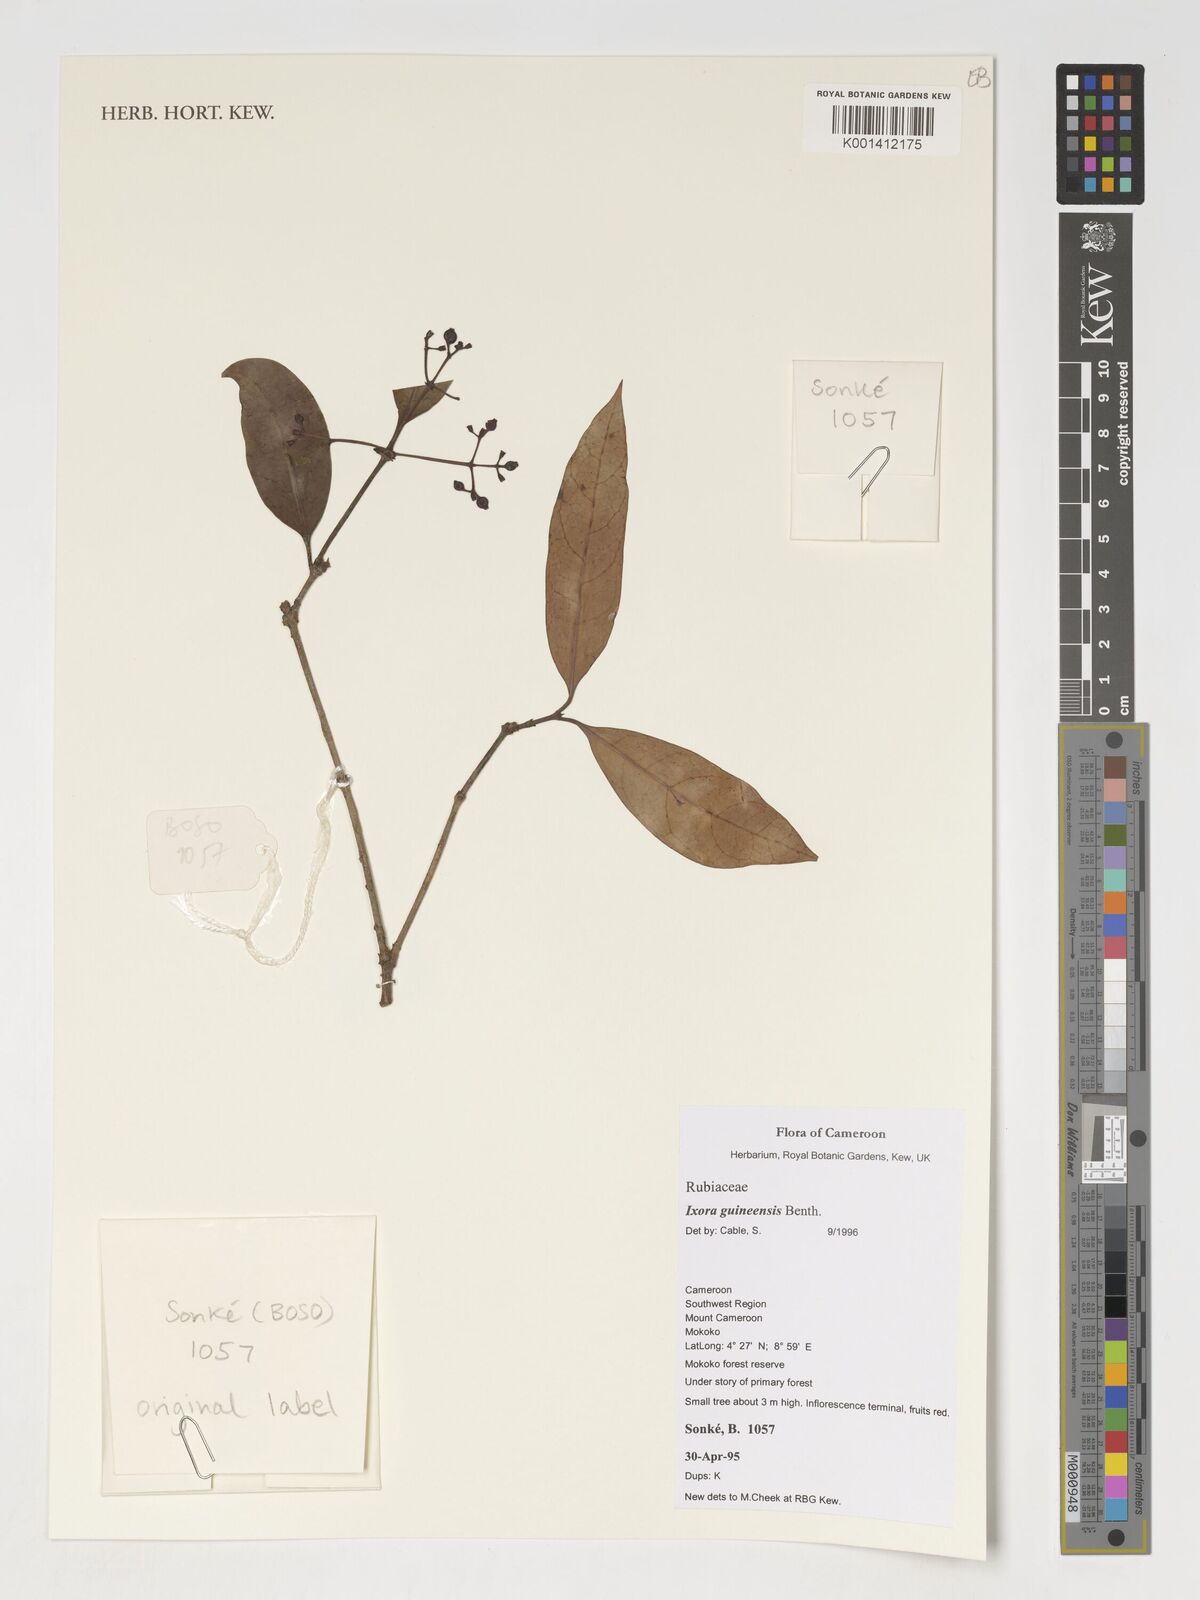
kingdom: Plantae
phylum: Tracheophyta
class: Magnoliopsida
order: Gentianales
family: Rubiaceae
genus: Ixora
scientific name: Ixora guineensis
